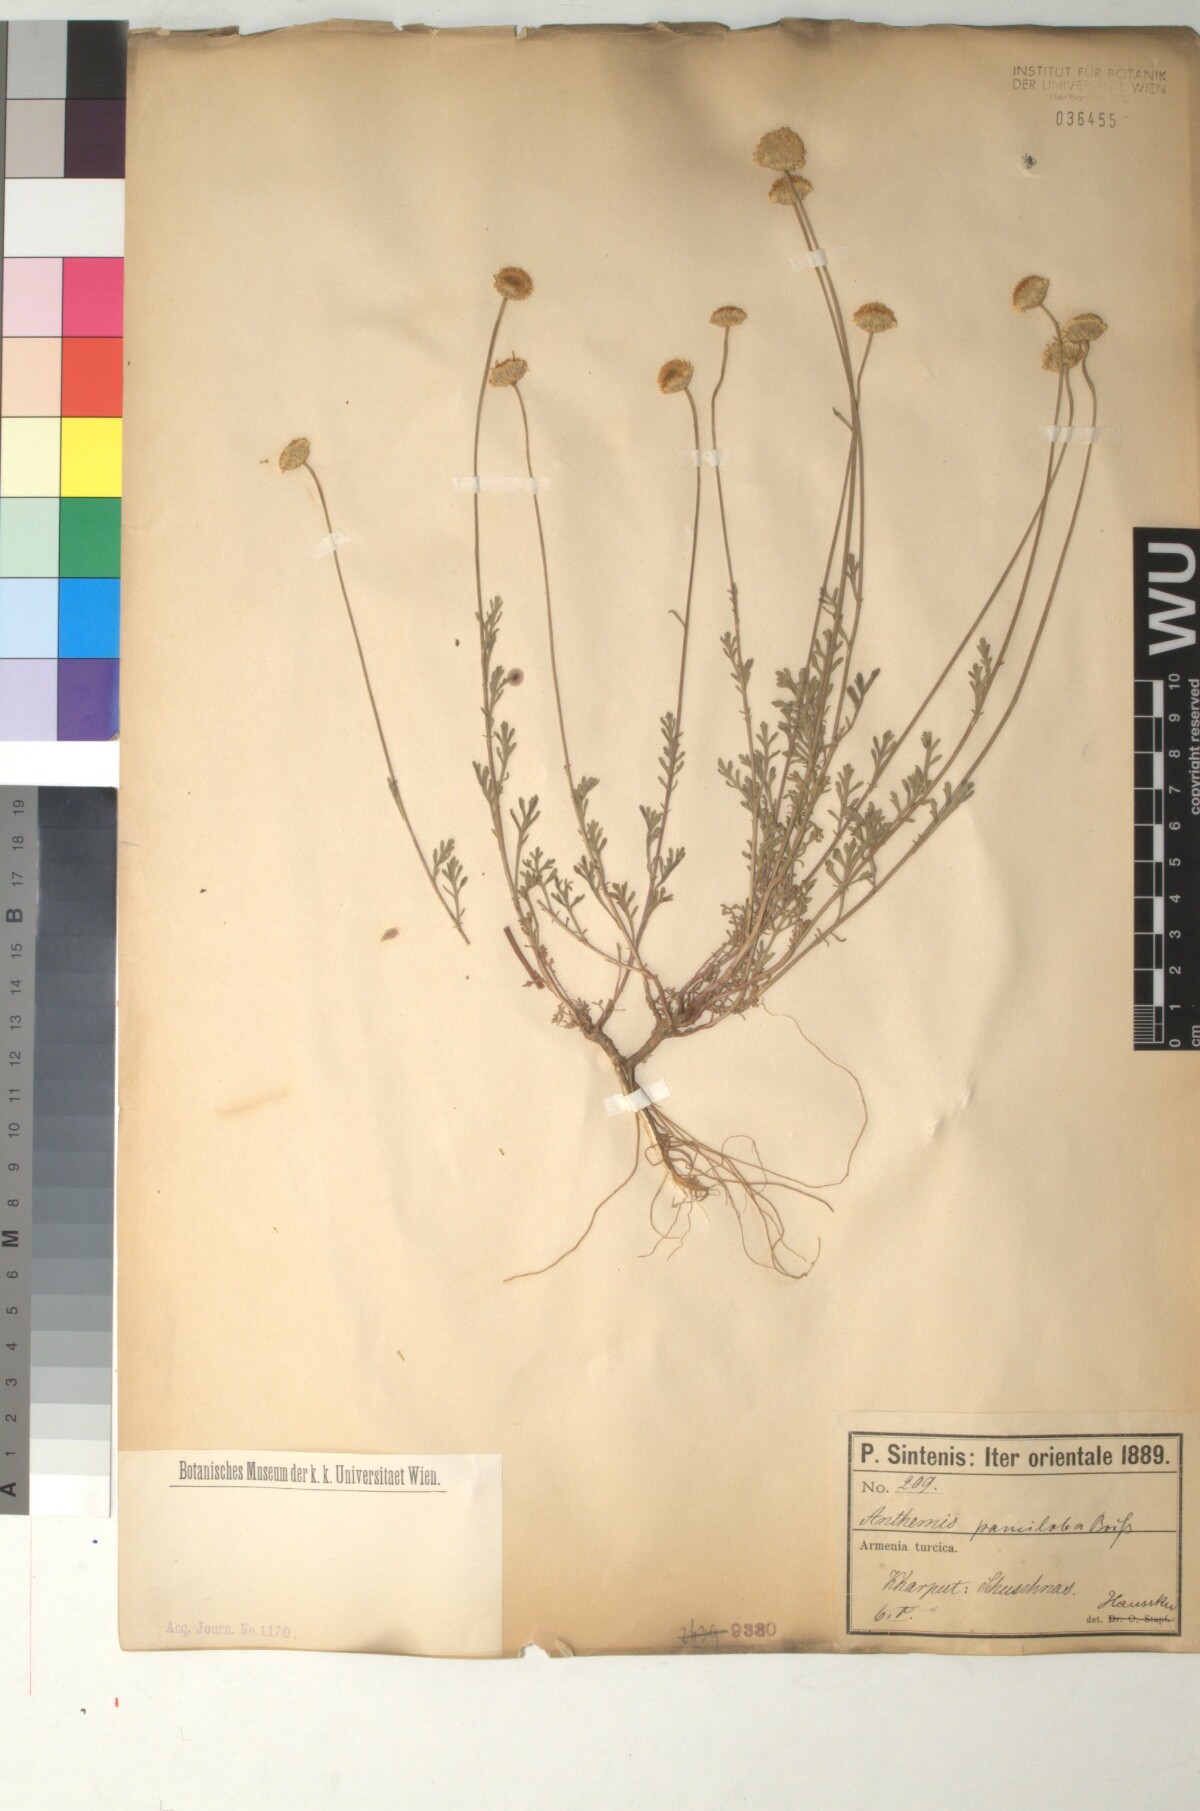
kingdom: Plantae
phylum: Tracheophyta
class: Magnoliopsida
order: Asterales
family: Asteraceae
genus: Anthemis
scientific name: Anthemis pauciloba
